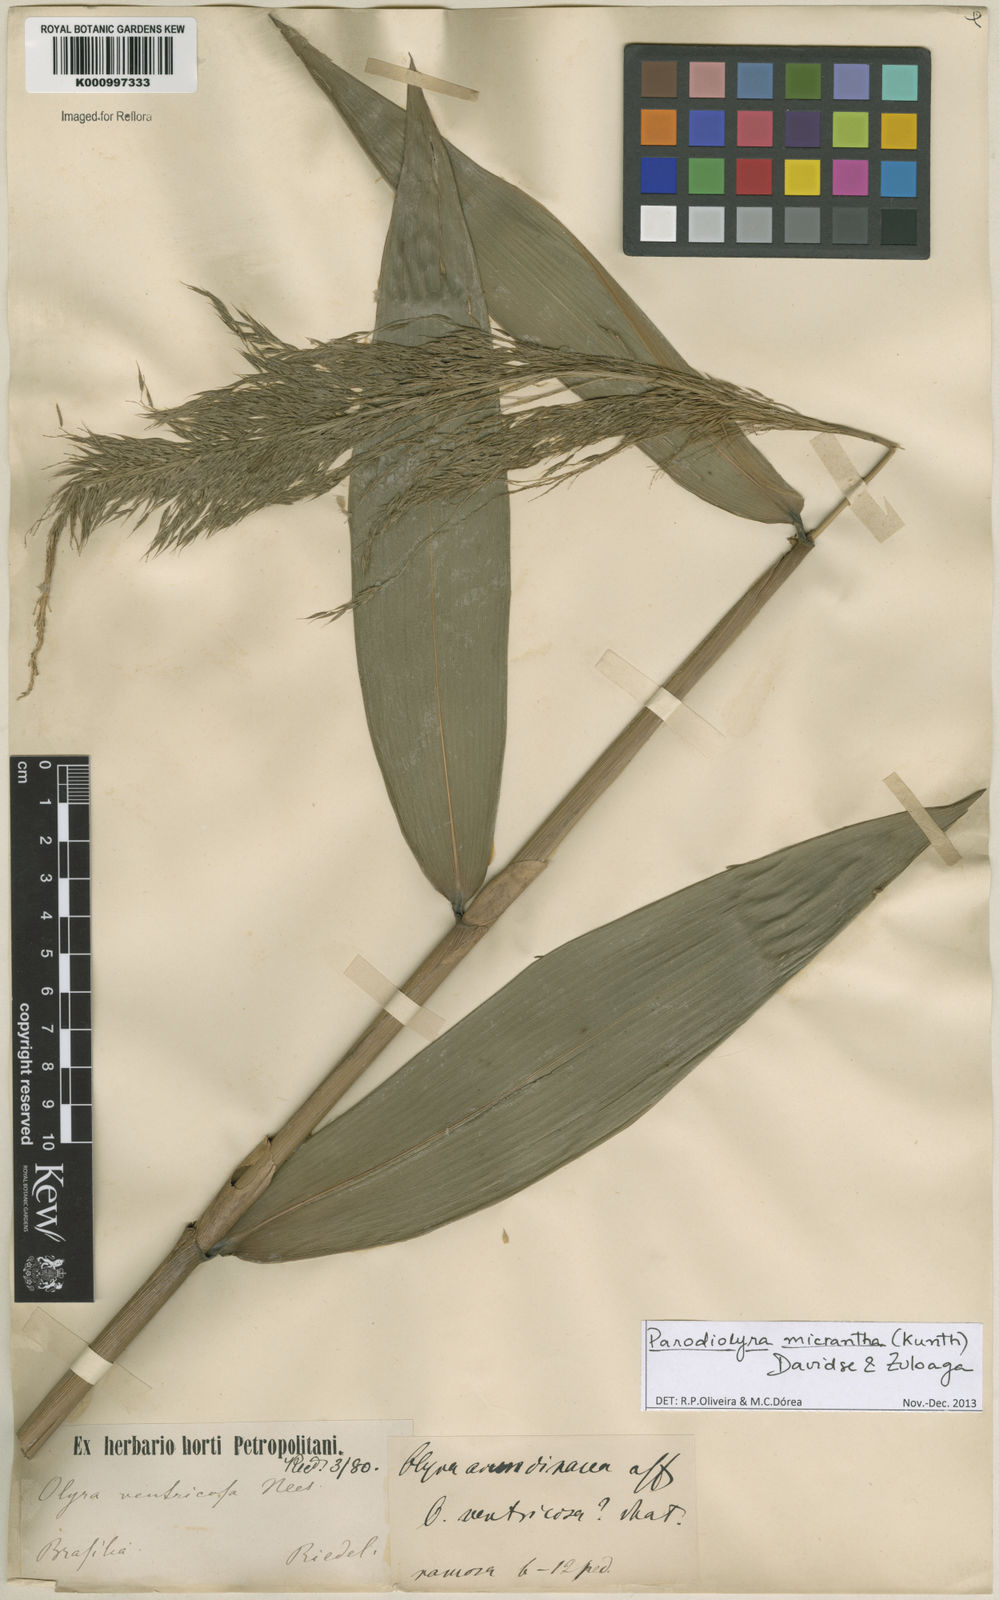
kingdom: Plantae
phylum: Tracheophyta
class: Liliopsida
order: Poales
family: Poaceae
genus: Taquara
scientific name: Taquara micrantha
